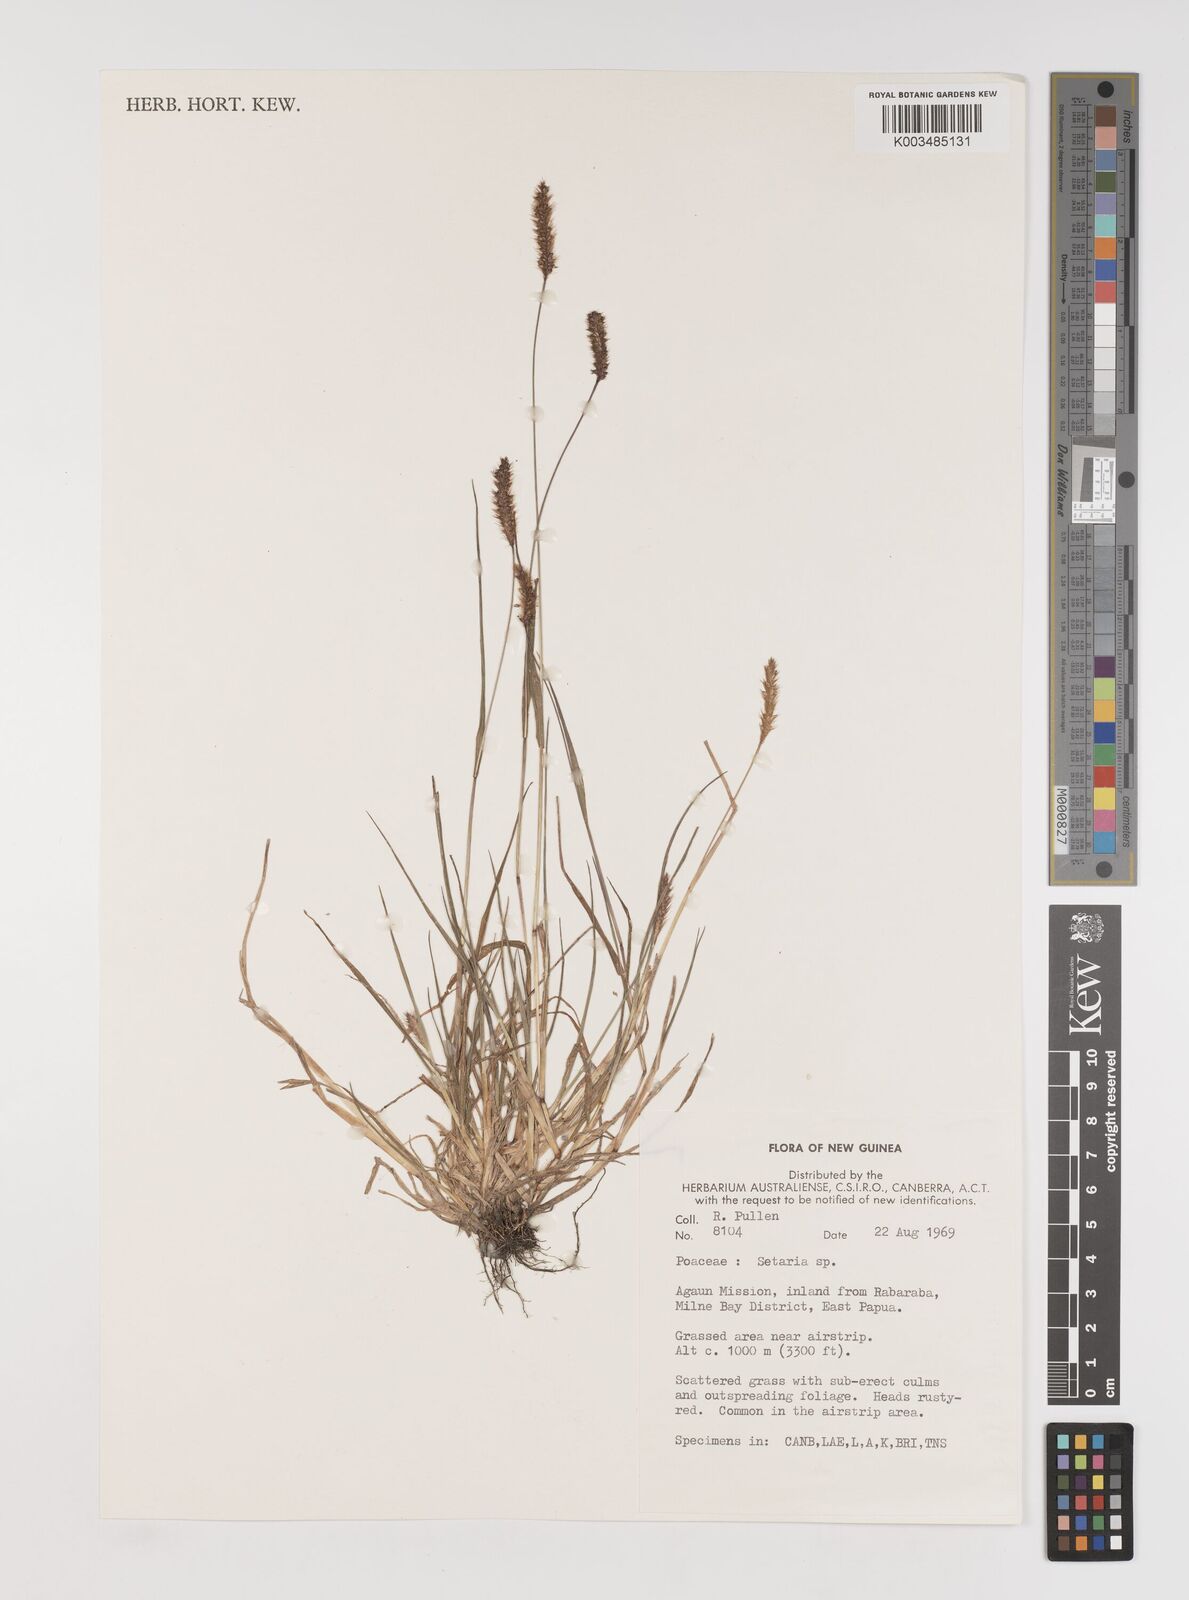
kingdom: Plantae
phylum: Tracheophyta
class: Liliopsida
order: Poales
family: Poaceae
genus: Setaria
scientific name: Setaria
